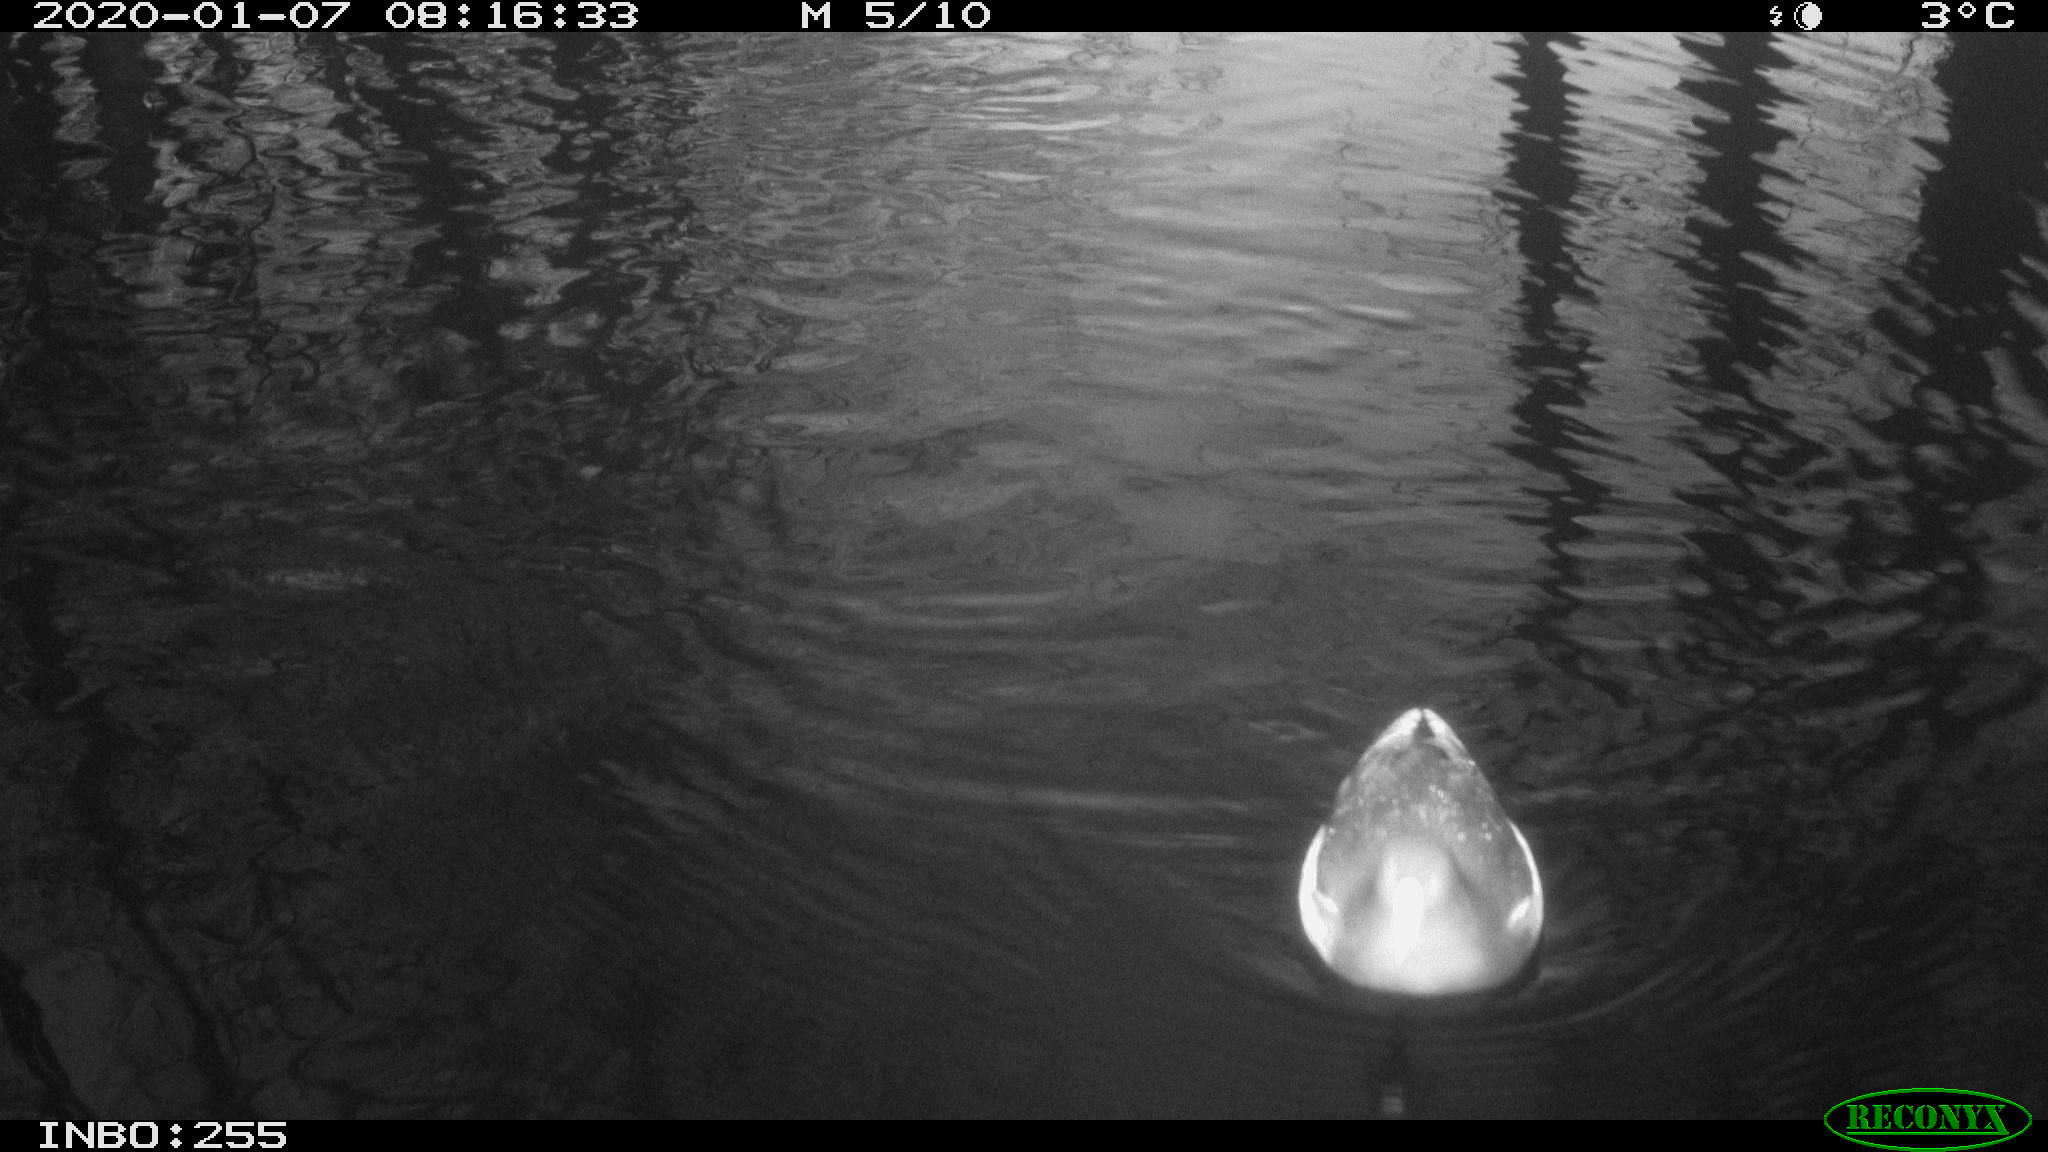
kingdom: Animalia
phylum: Chordata
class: Aves
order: Gruiformes
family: Rallidae
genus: Gallinula
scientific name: Gallinula chloropus
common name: Common moorhen
